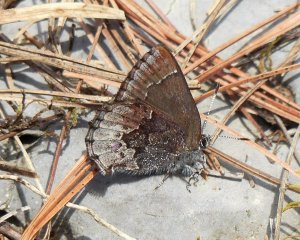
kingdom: Animalia
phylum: Arthropoda
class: Insecta
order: Lepidoptera
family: Lycaenidae
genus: Callophrys
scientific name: Callophrys polios
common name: Hoary Elfin
